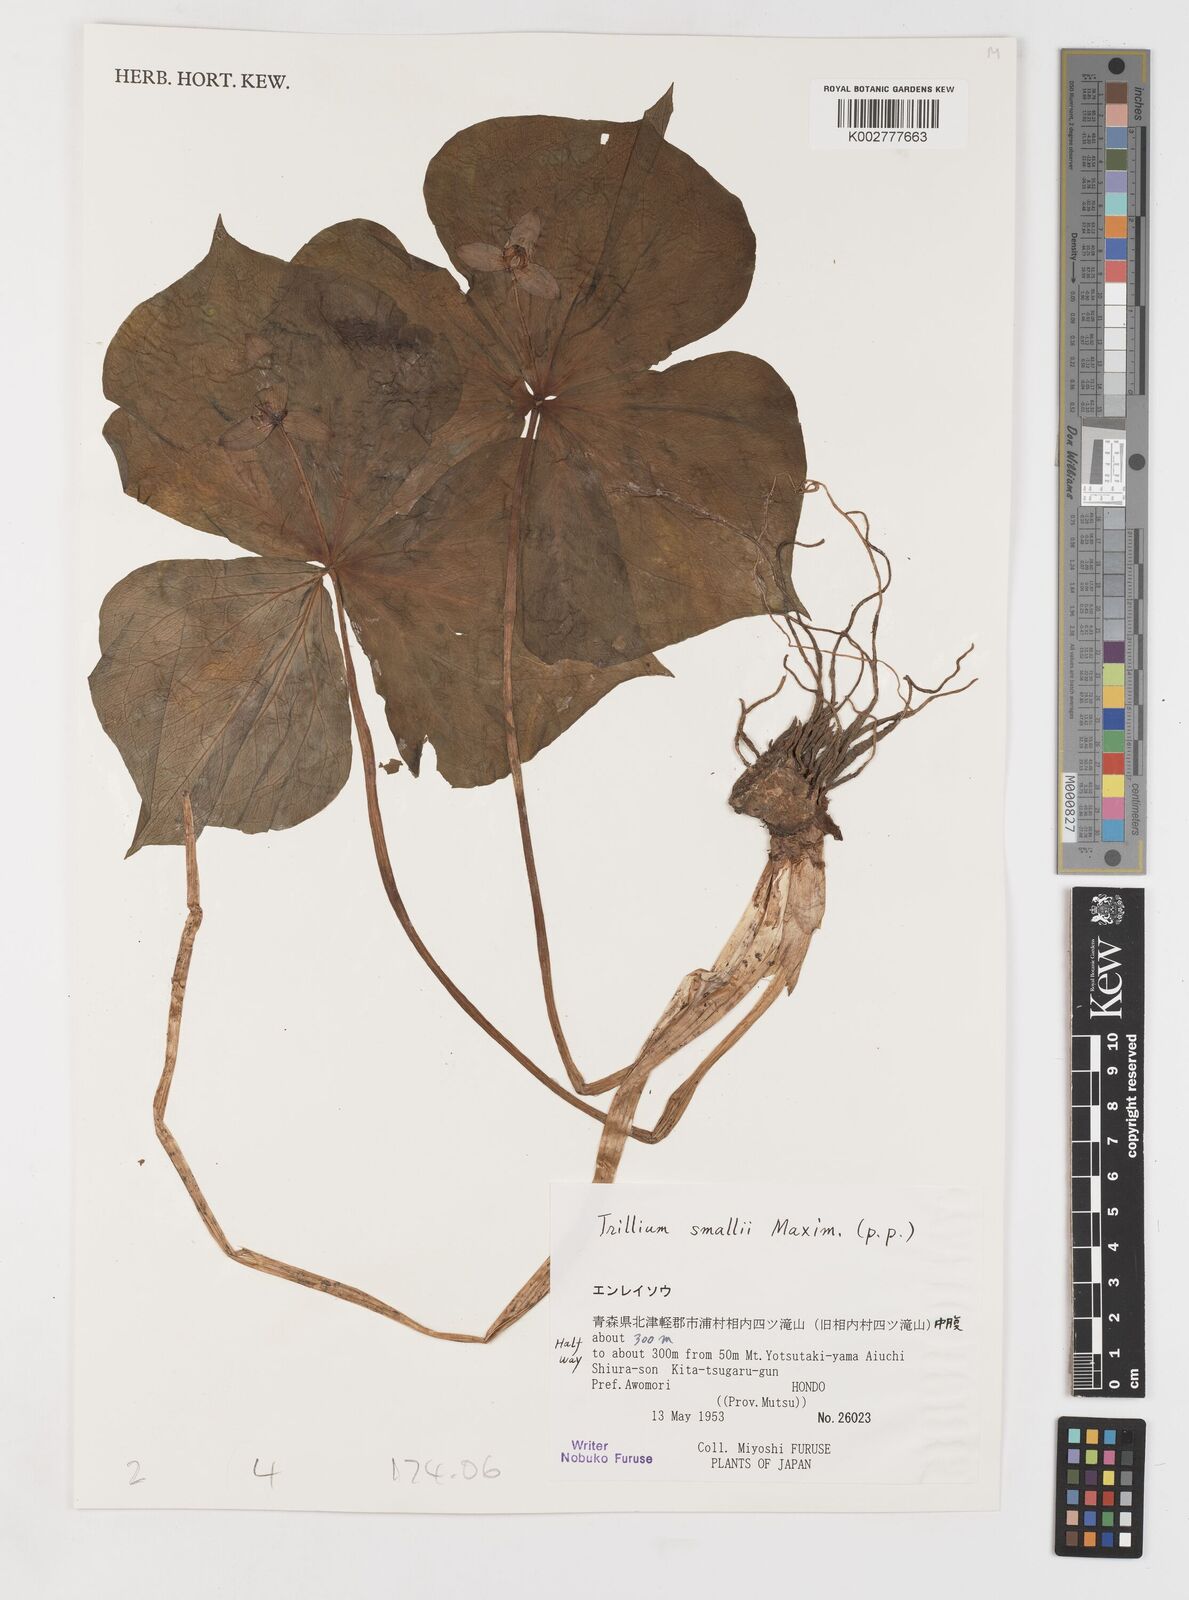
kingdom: Plantae
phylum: Tracheophyta
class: Liliopsida
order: Liliales
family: Melanthiaceae
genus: Trillium
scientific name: Trillium smallii
